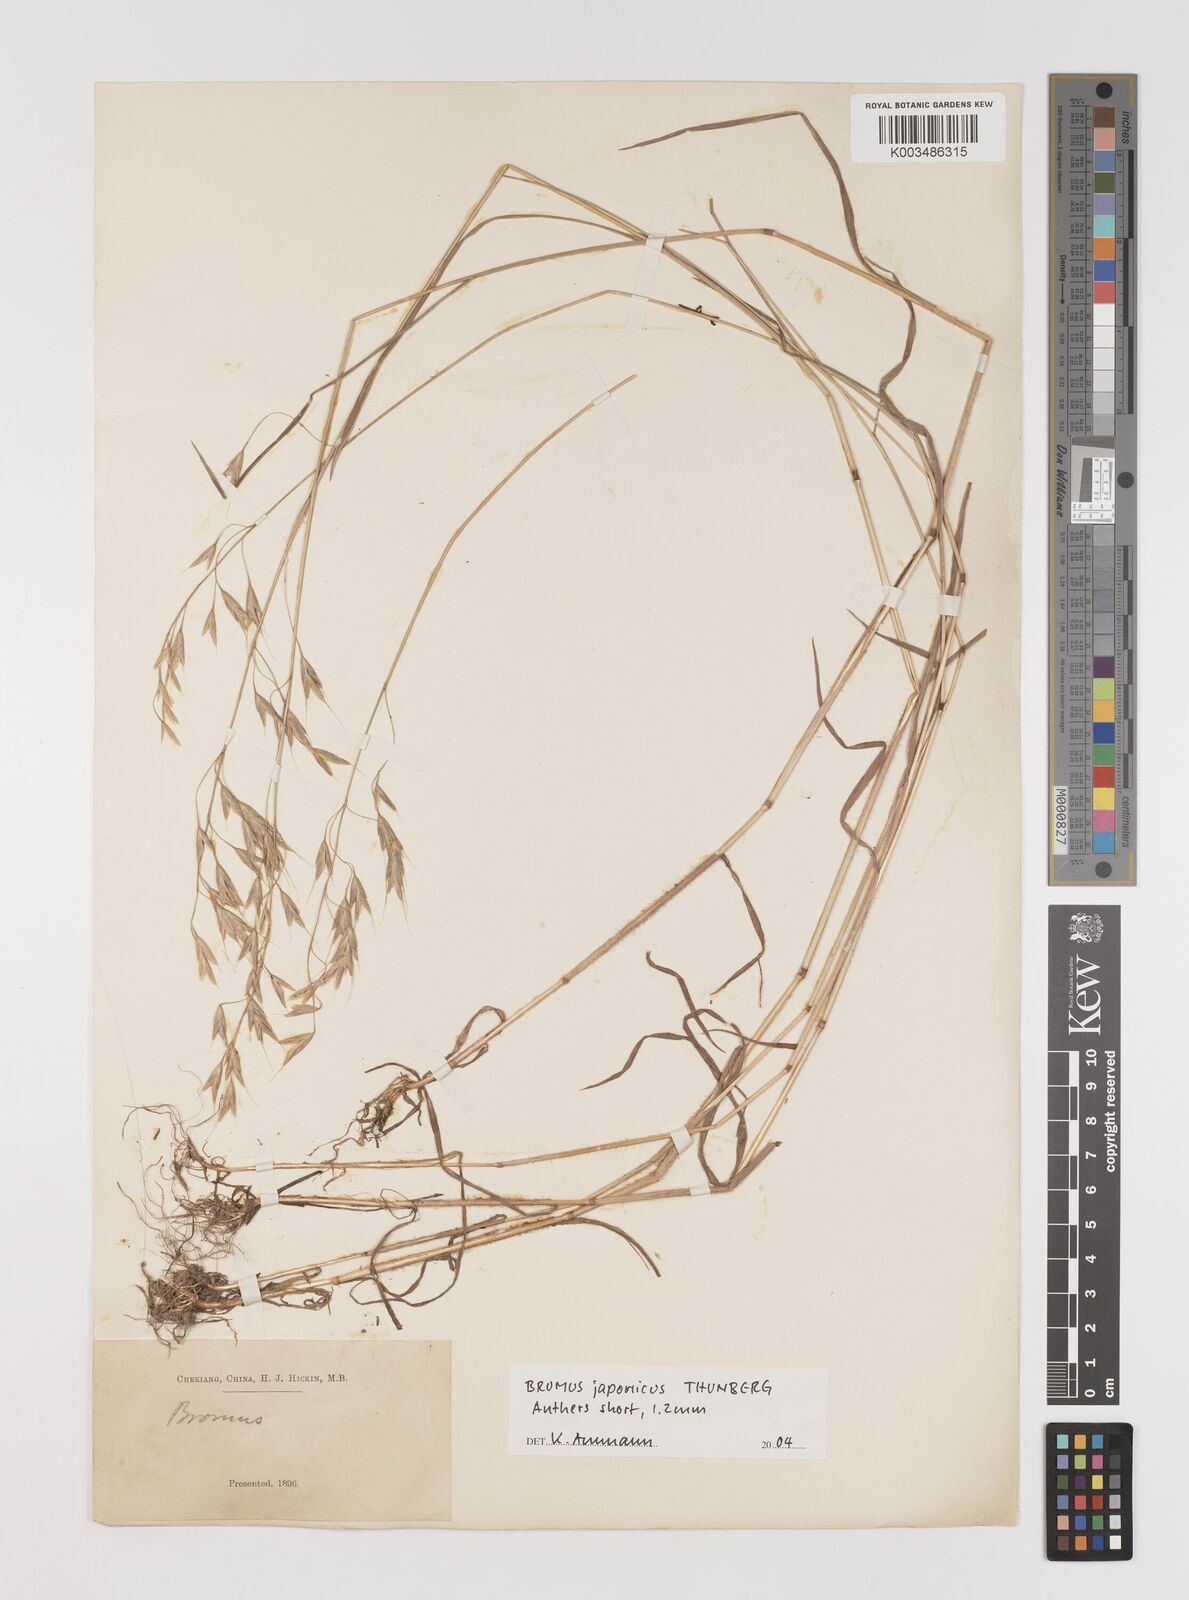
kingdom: Plantae
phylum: Tracheophyta
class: Liliopsida
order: Poales
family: Poaceae
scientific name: Poaceae
